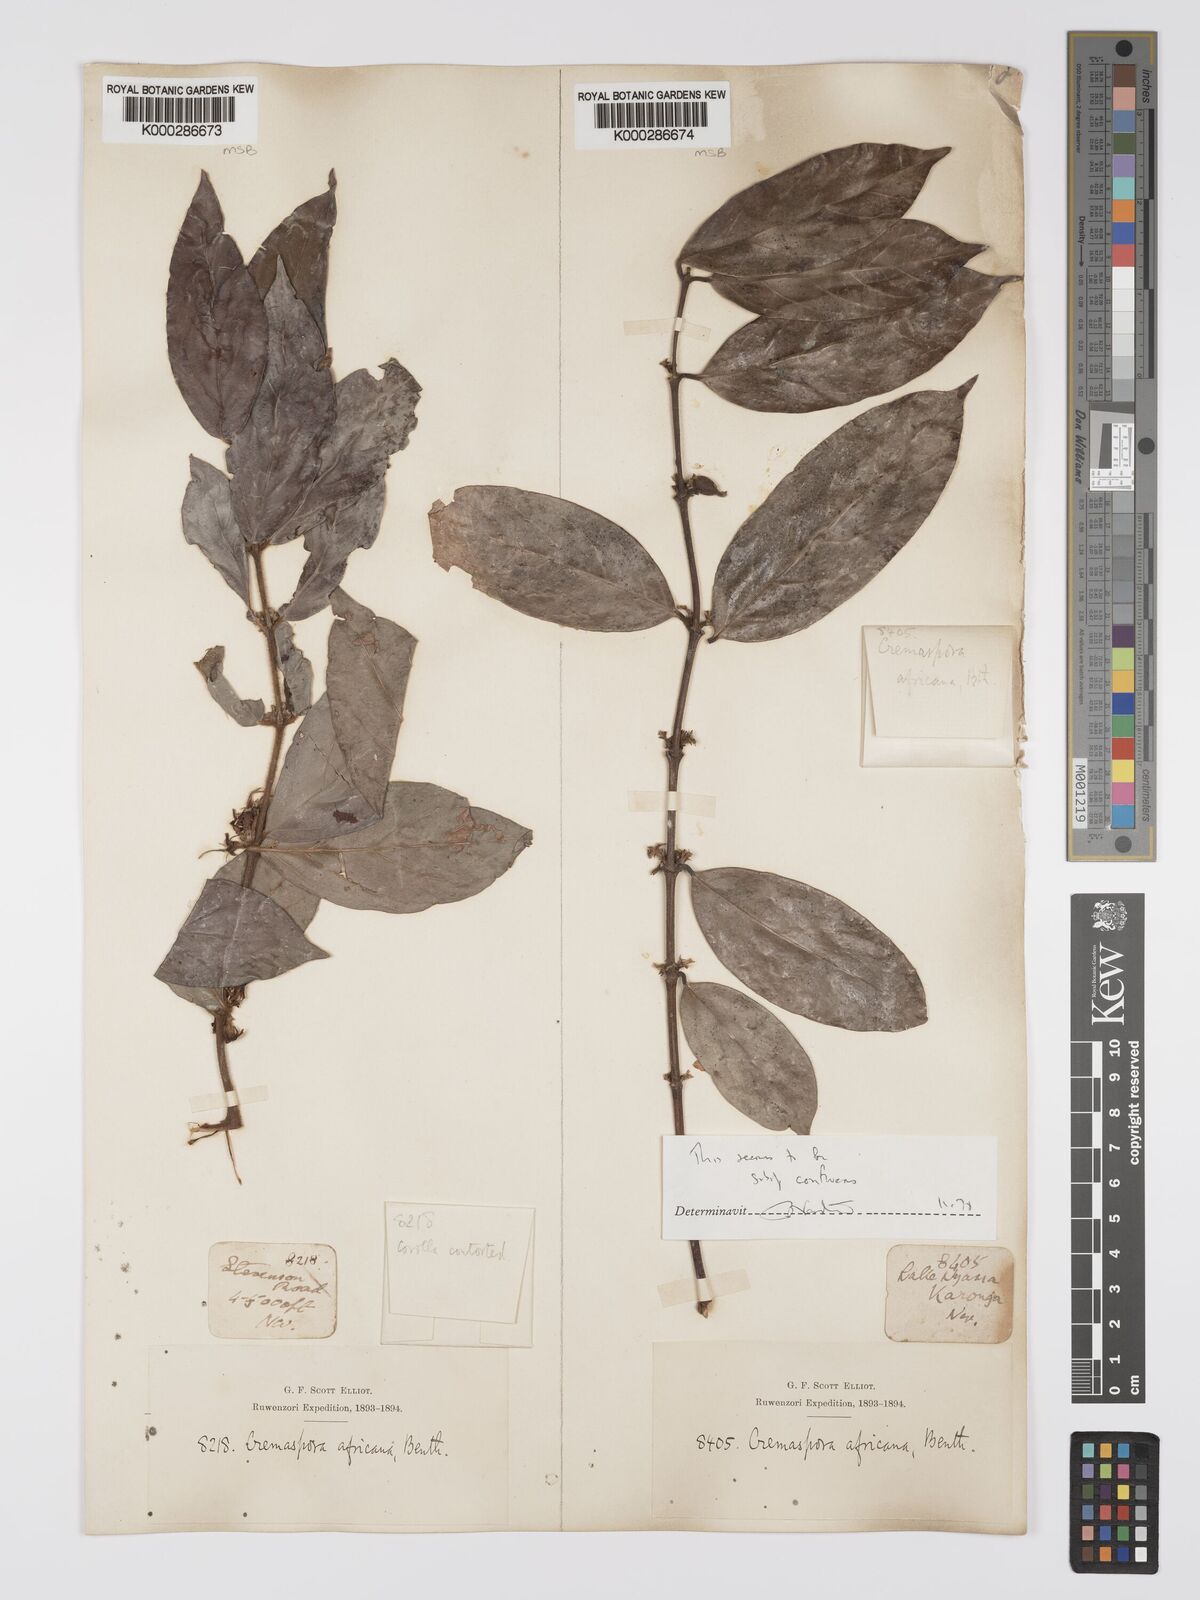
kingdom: Plantae
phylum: Tracheophyta
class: Magnoliopsida
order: Gentianales
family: Rubiaceae
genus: Cremaspora
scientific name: Cremaspora triflora
